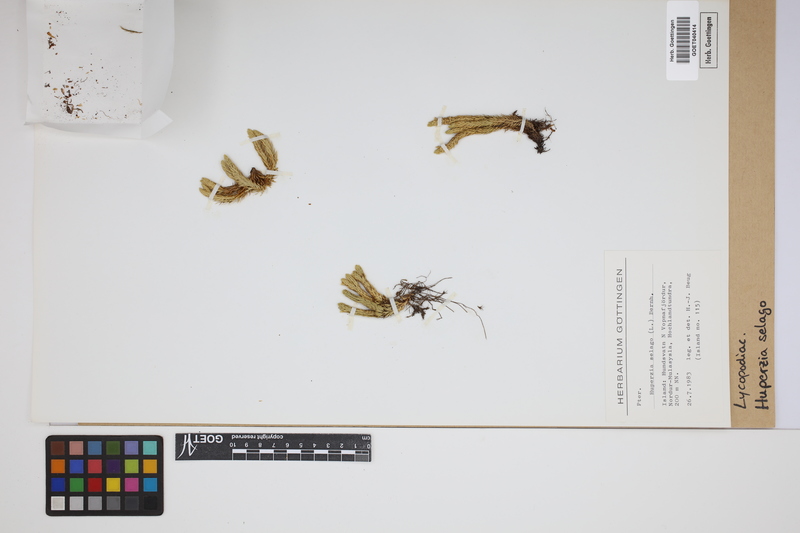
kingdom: Plantae
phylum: Tracheophyta
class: Lycopodiopsida
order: Lycopodiales
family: Lycopodiaceae
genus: Huperzia
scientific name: Huperzia selago
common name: Northern firmoss
